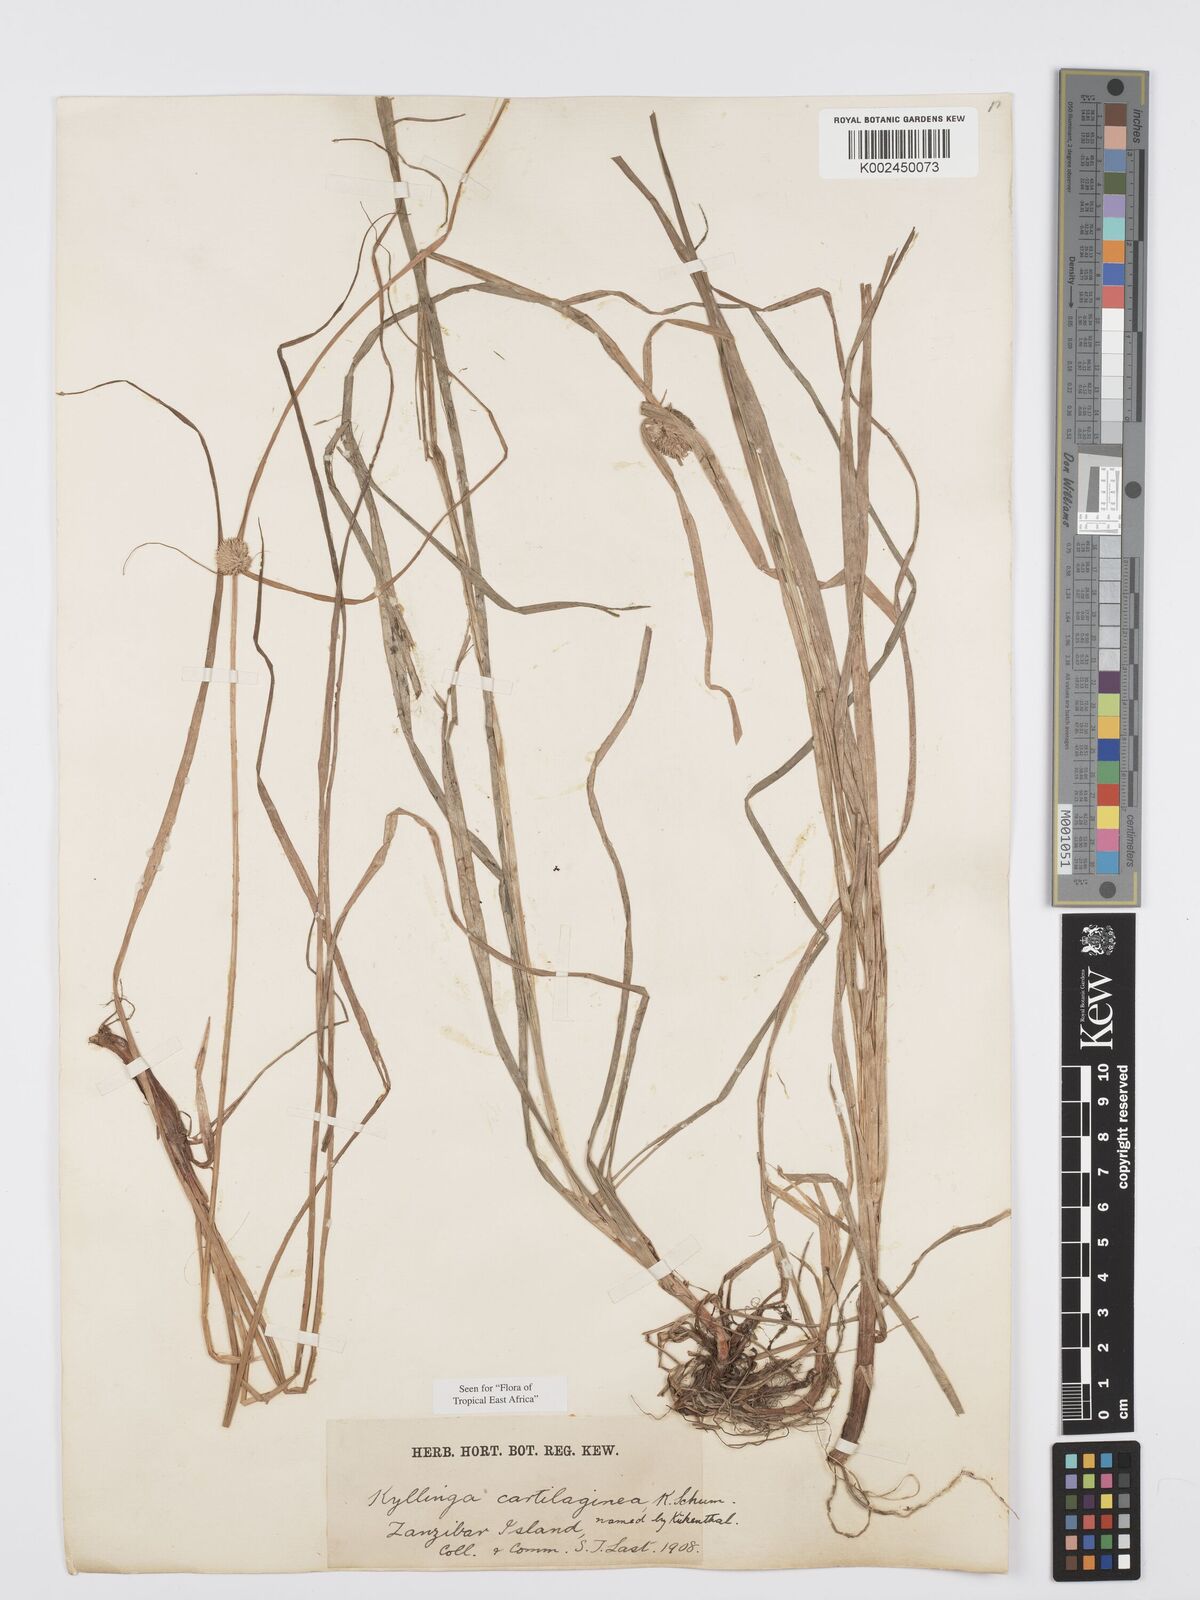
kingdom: Plantae
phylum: Tracheophyta
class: Liliopsida
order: Poales
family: Cyperaceae
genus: Cyperus
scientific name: Cyperus cartilagineus
